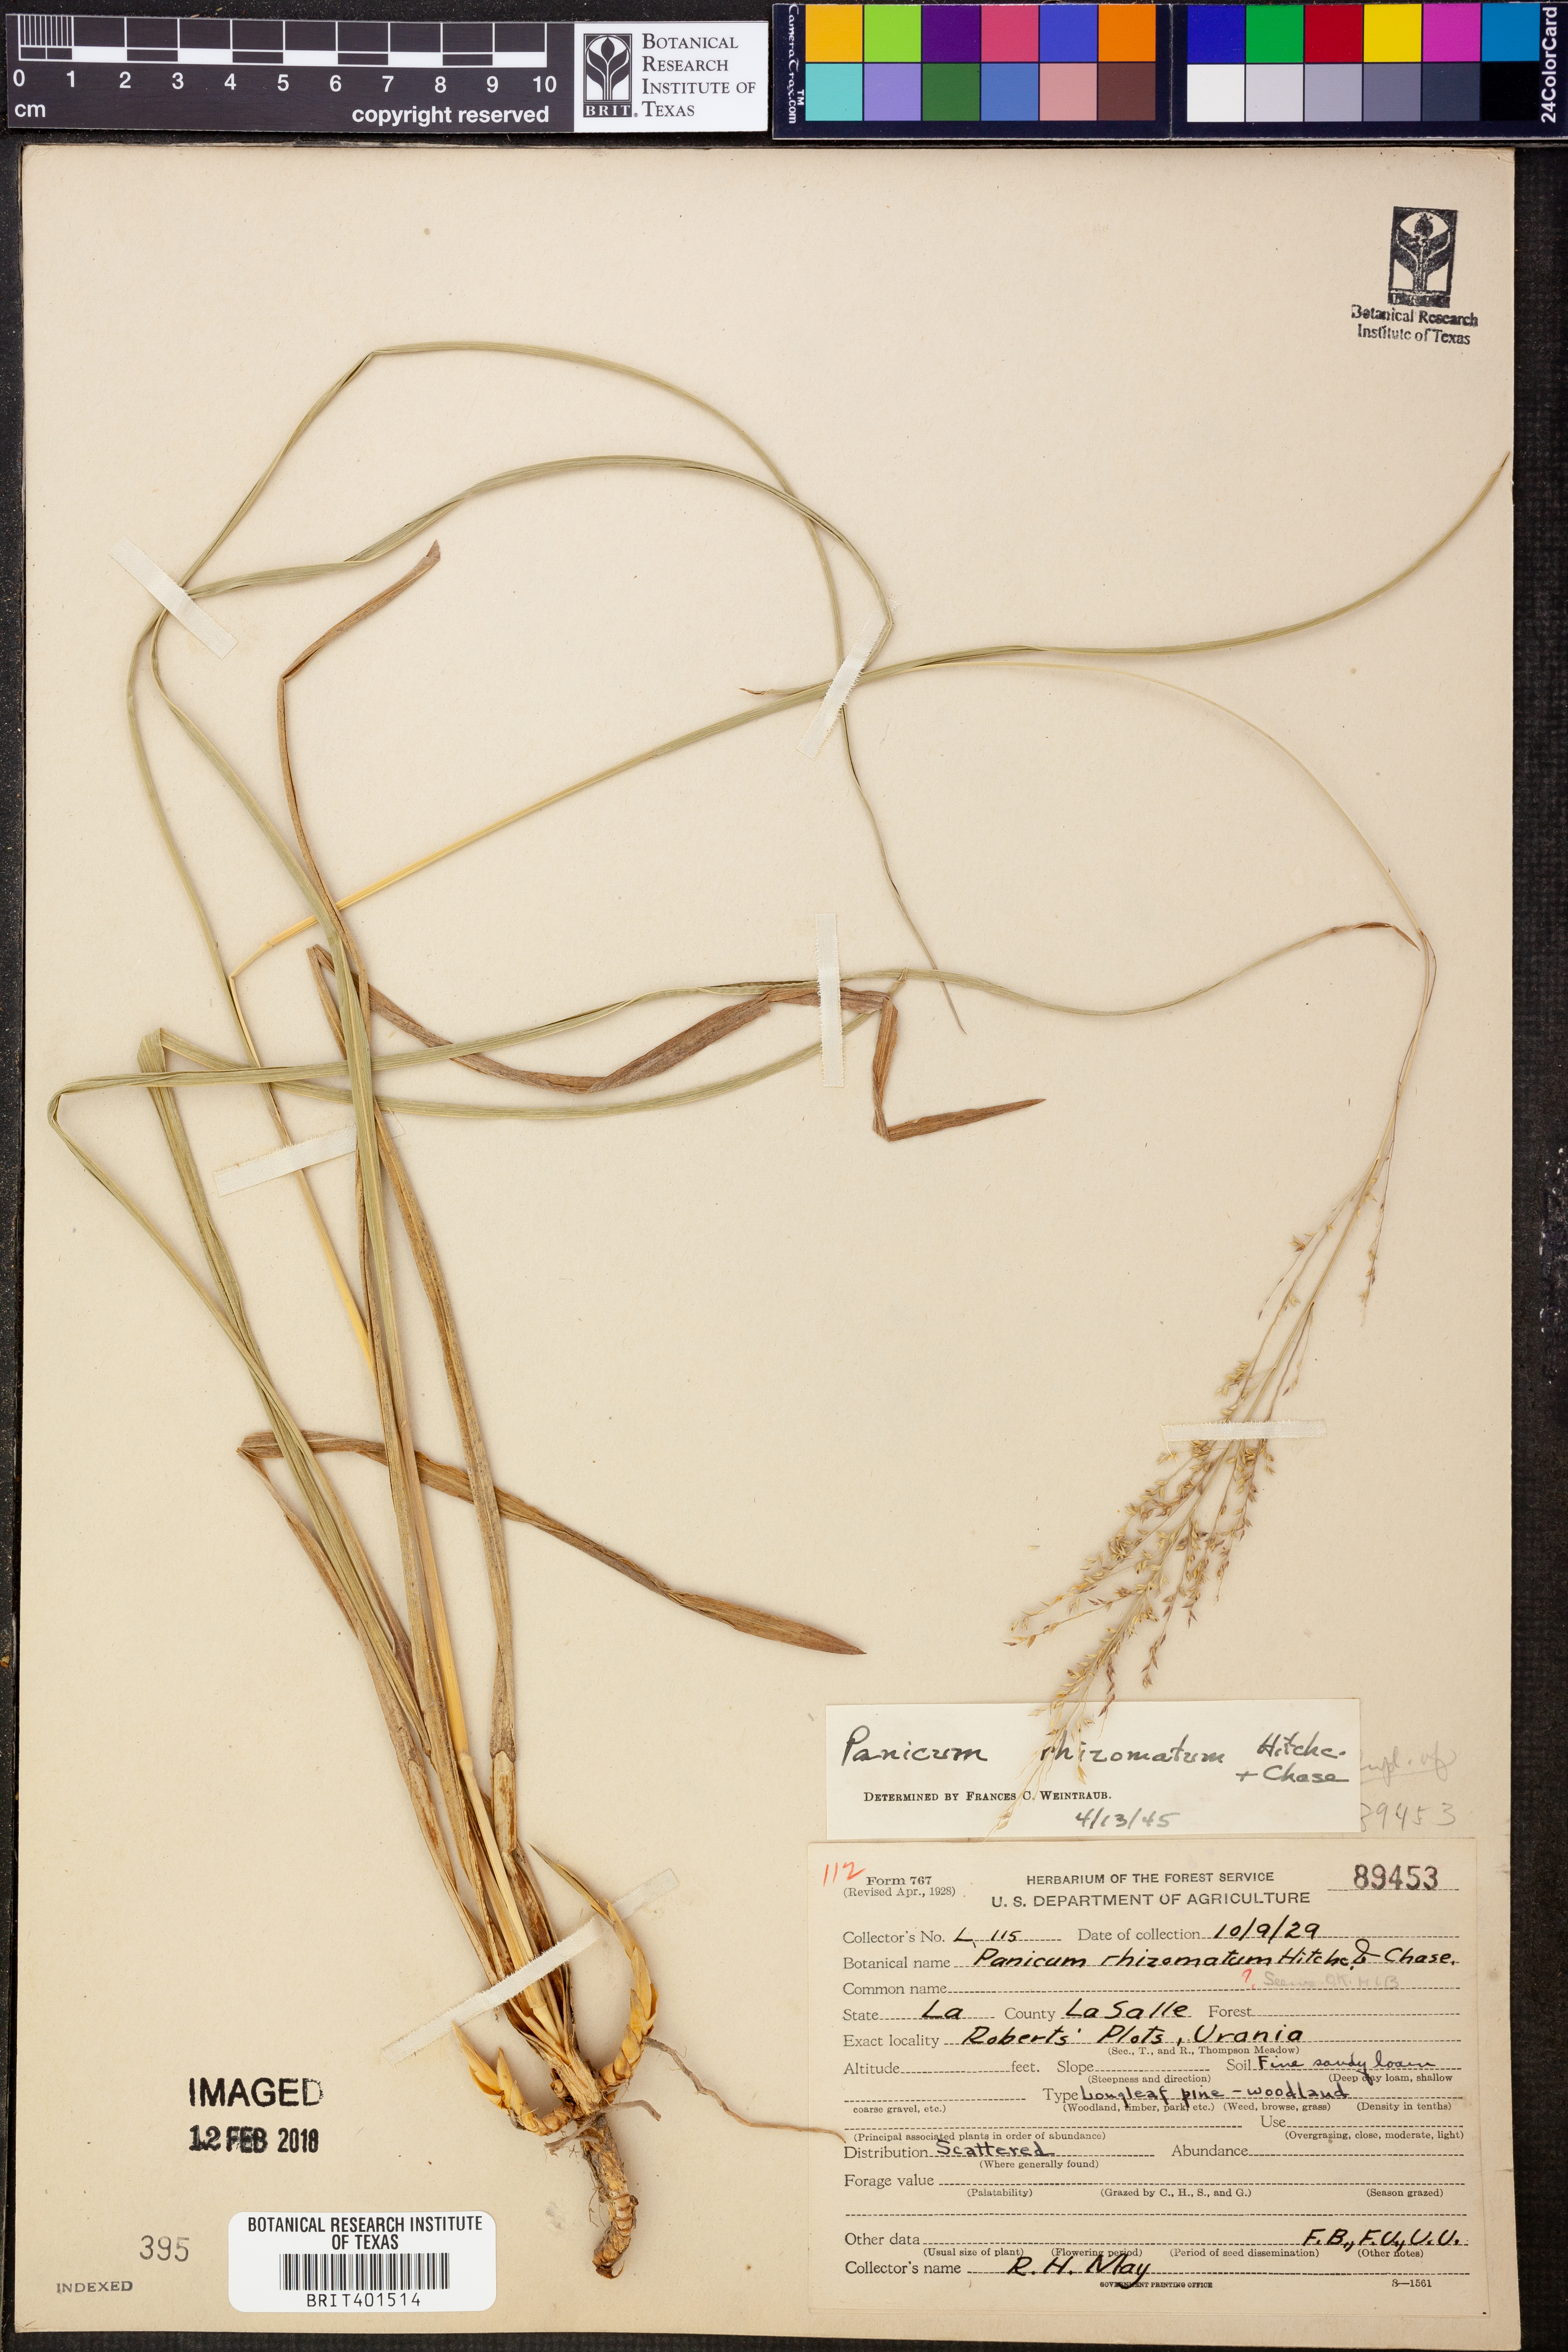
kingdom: Plantae
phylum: Tracheophyta
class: Liliopsida
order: Poales
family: Poaceae
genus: Coleataenia
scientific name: Coleataenia anceps
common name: Beaked panic grass
